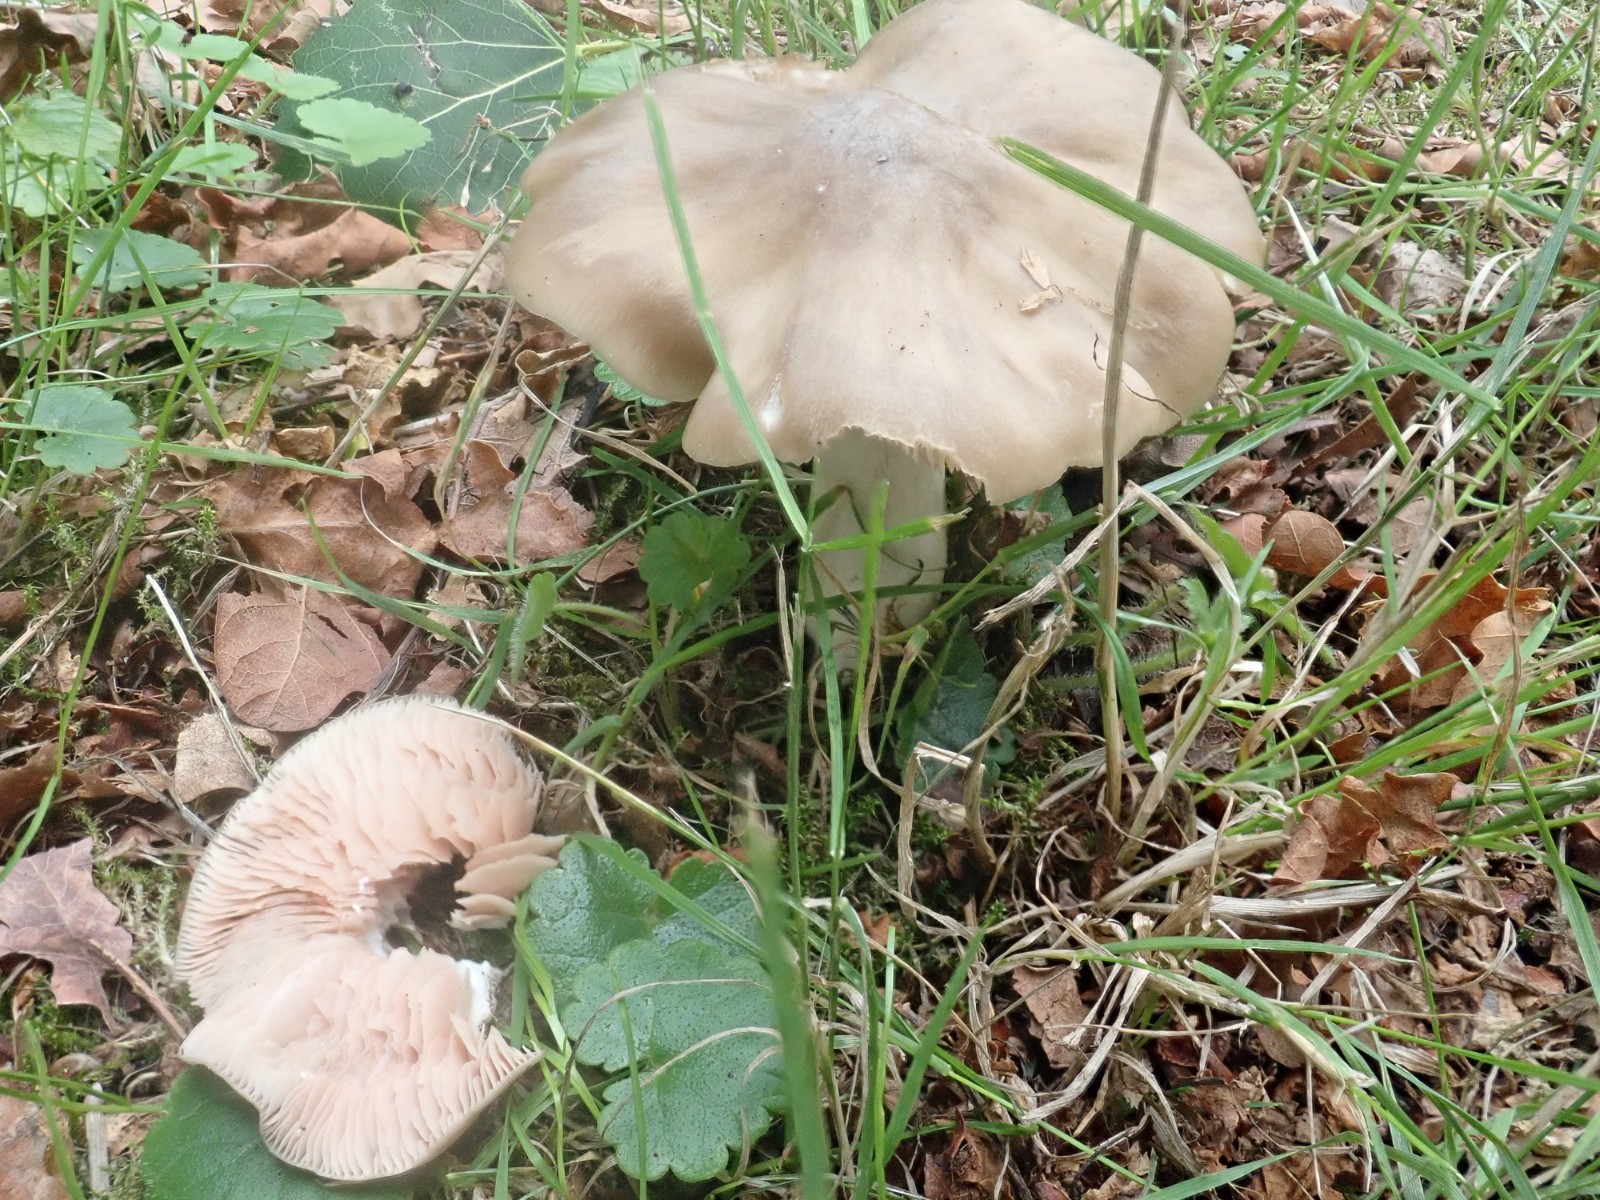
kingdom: Fungi
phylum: Basidiomycota
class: Agaricomycetes
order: Agaricales
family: Entolomataceae
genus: Entoloma
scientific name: Entoloma lividoalbum
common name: lysstokket rødblad
